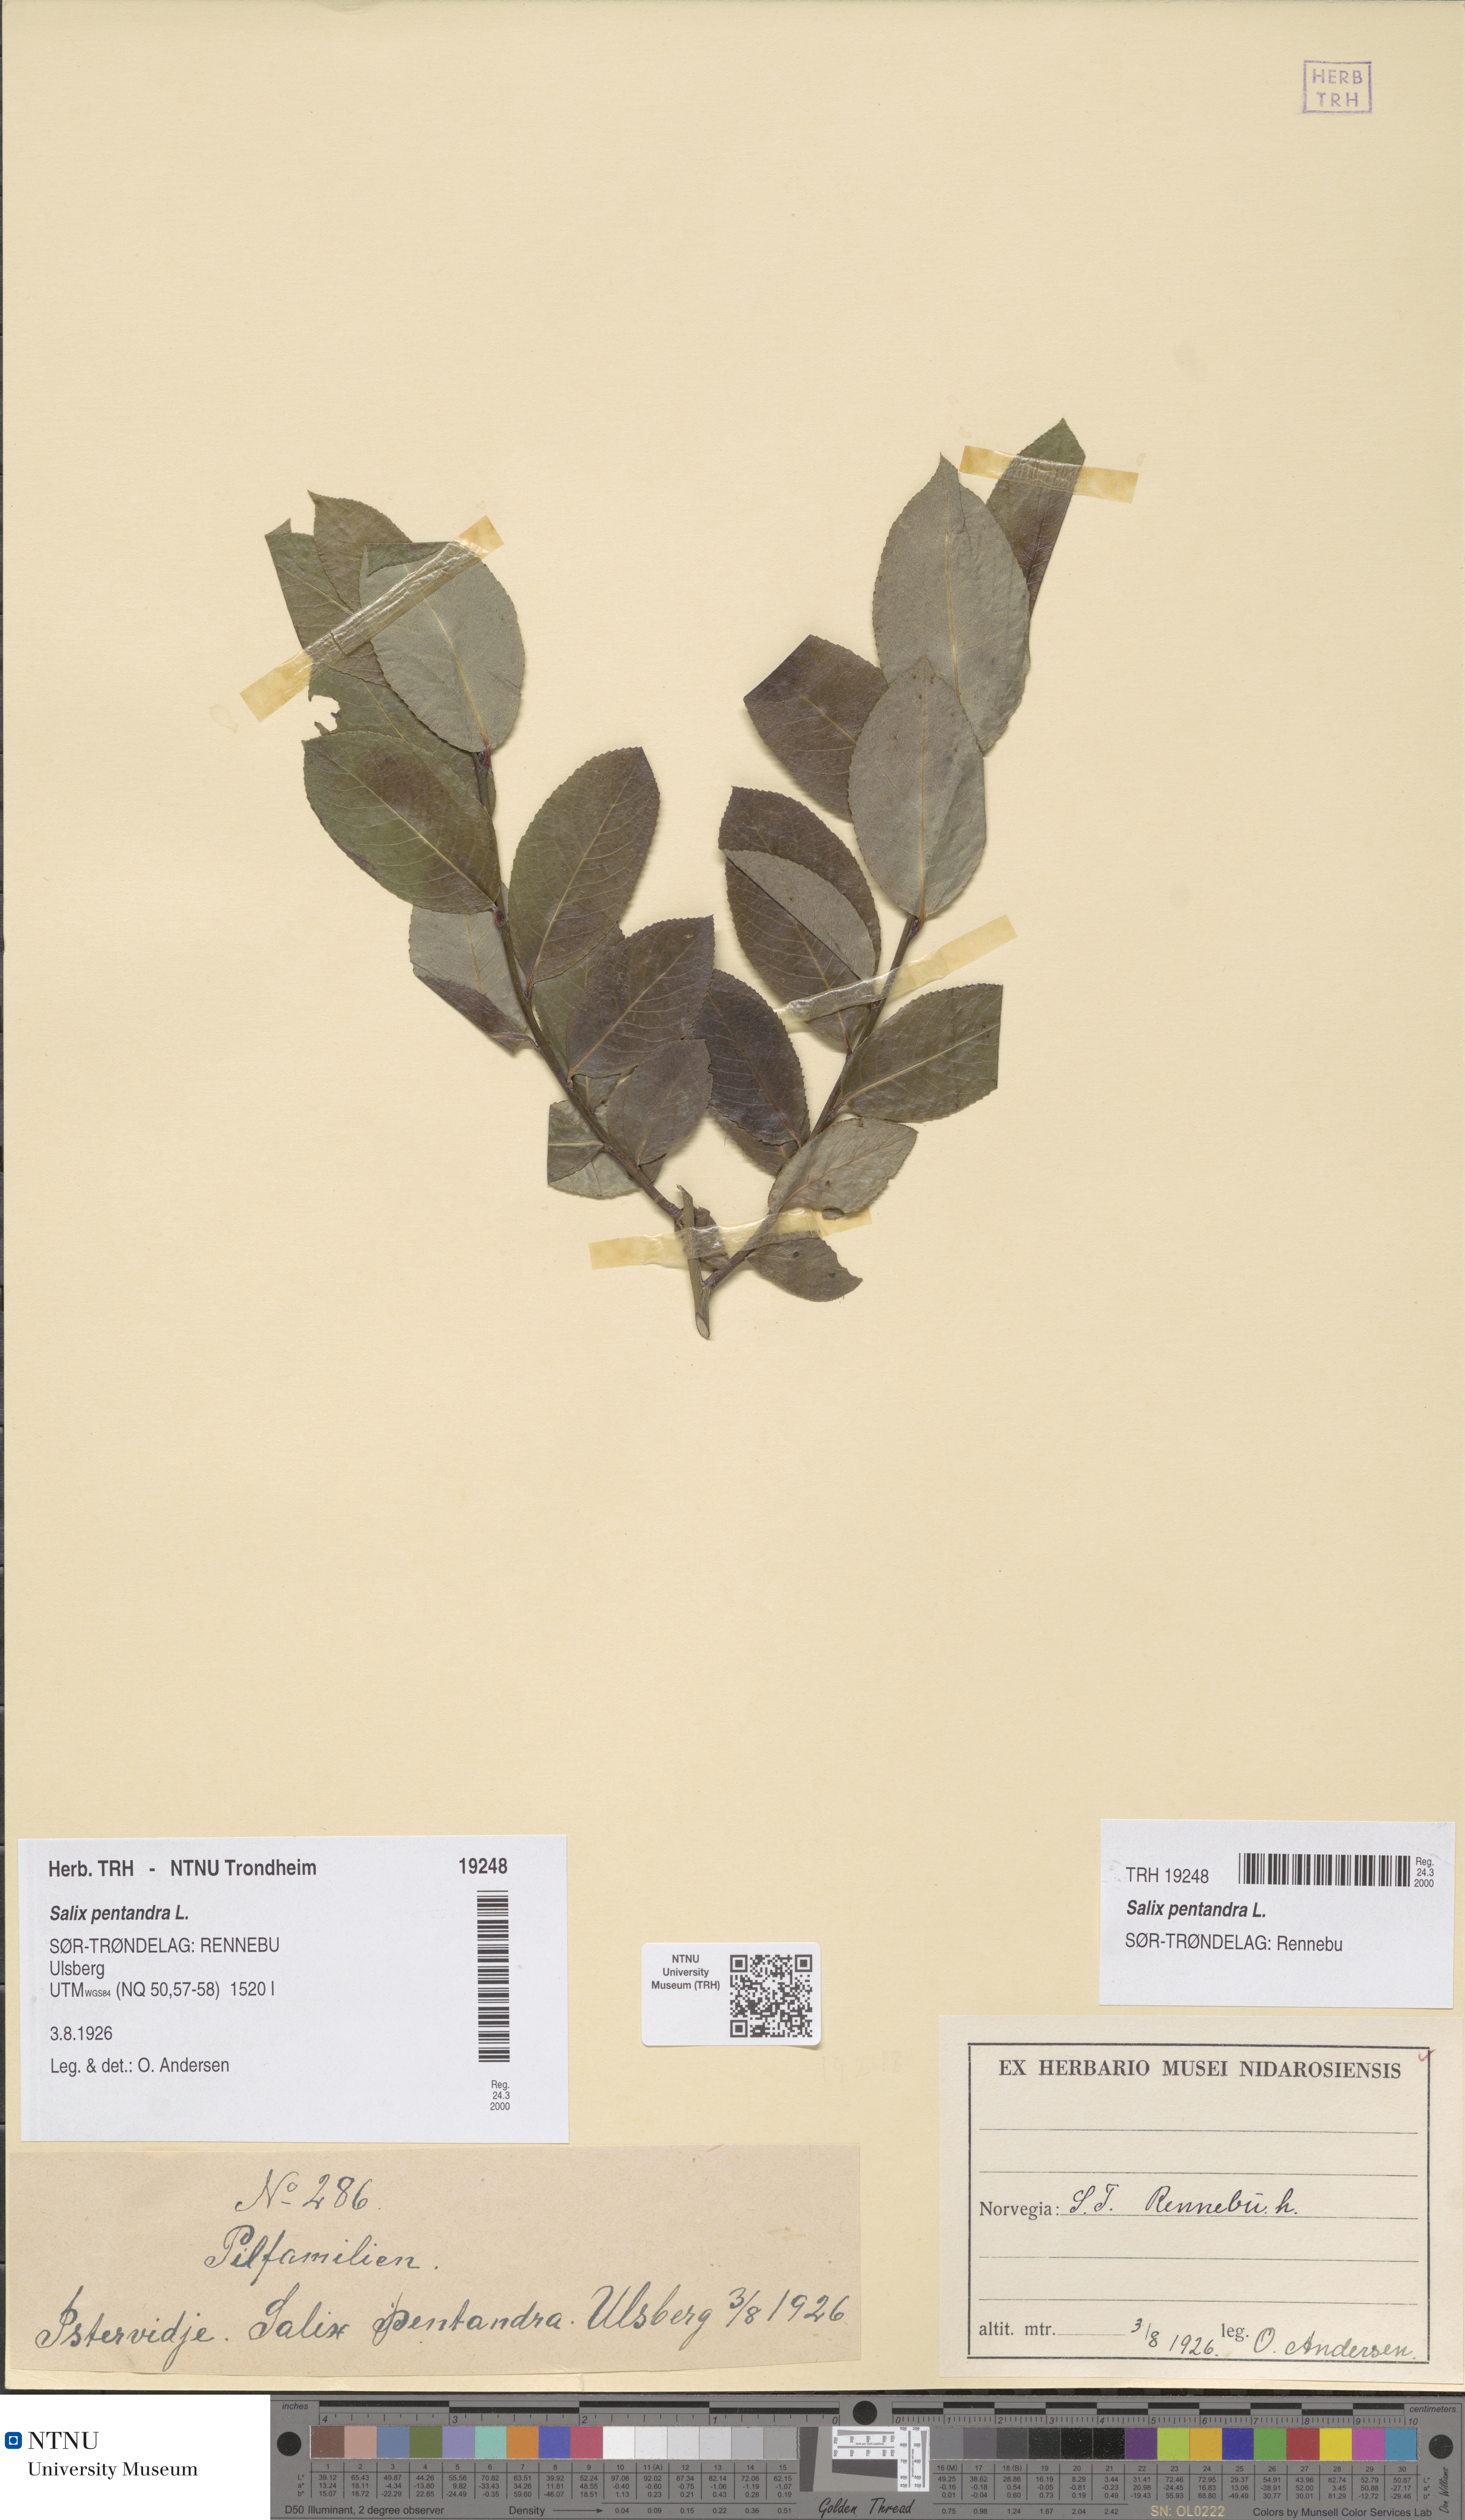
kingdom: Plantae
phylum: Tracheophyta
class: Magnoliopsida
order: Malpighiales
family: Salicaceae
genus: Salix
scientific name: Salix pentandra
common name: Bay willow
